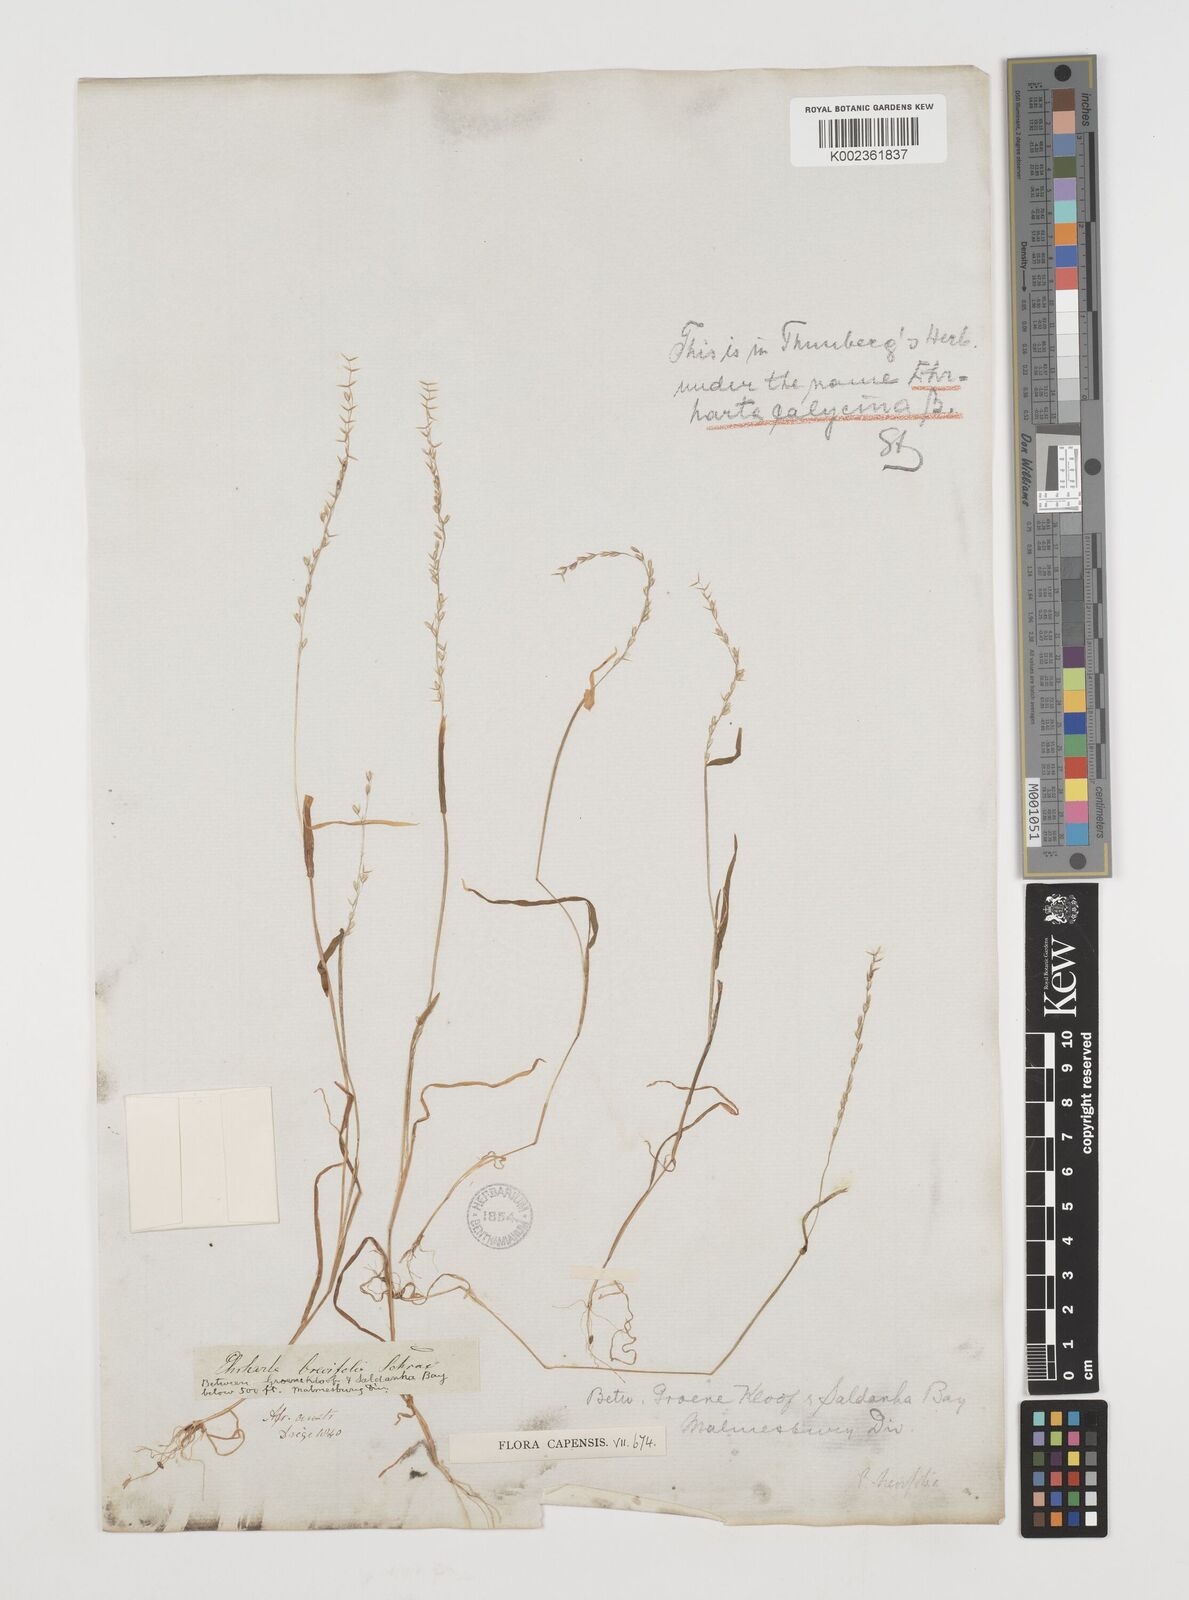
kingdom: Plantae
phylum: Tracheophyta
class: Liliopsida
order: Poales
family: Poaceae
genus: Ehrharta
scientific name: Ehrharta brevifolia
